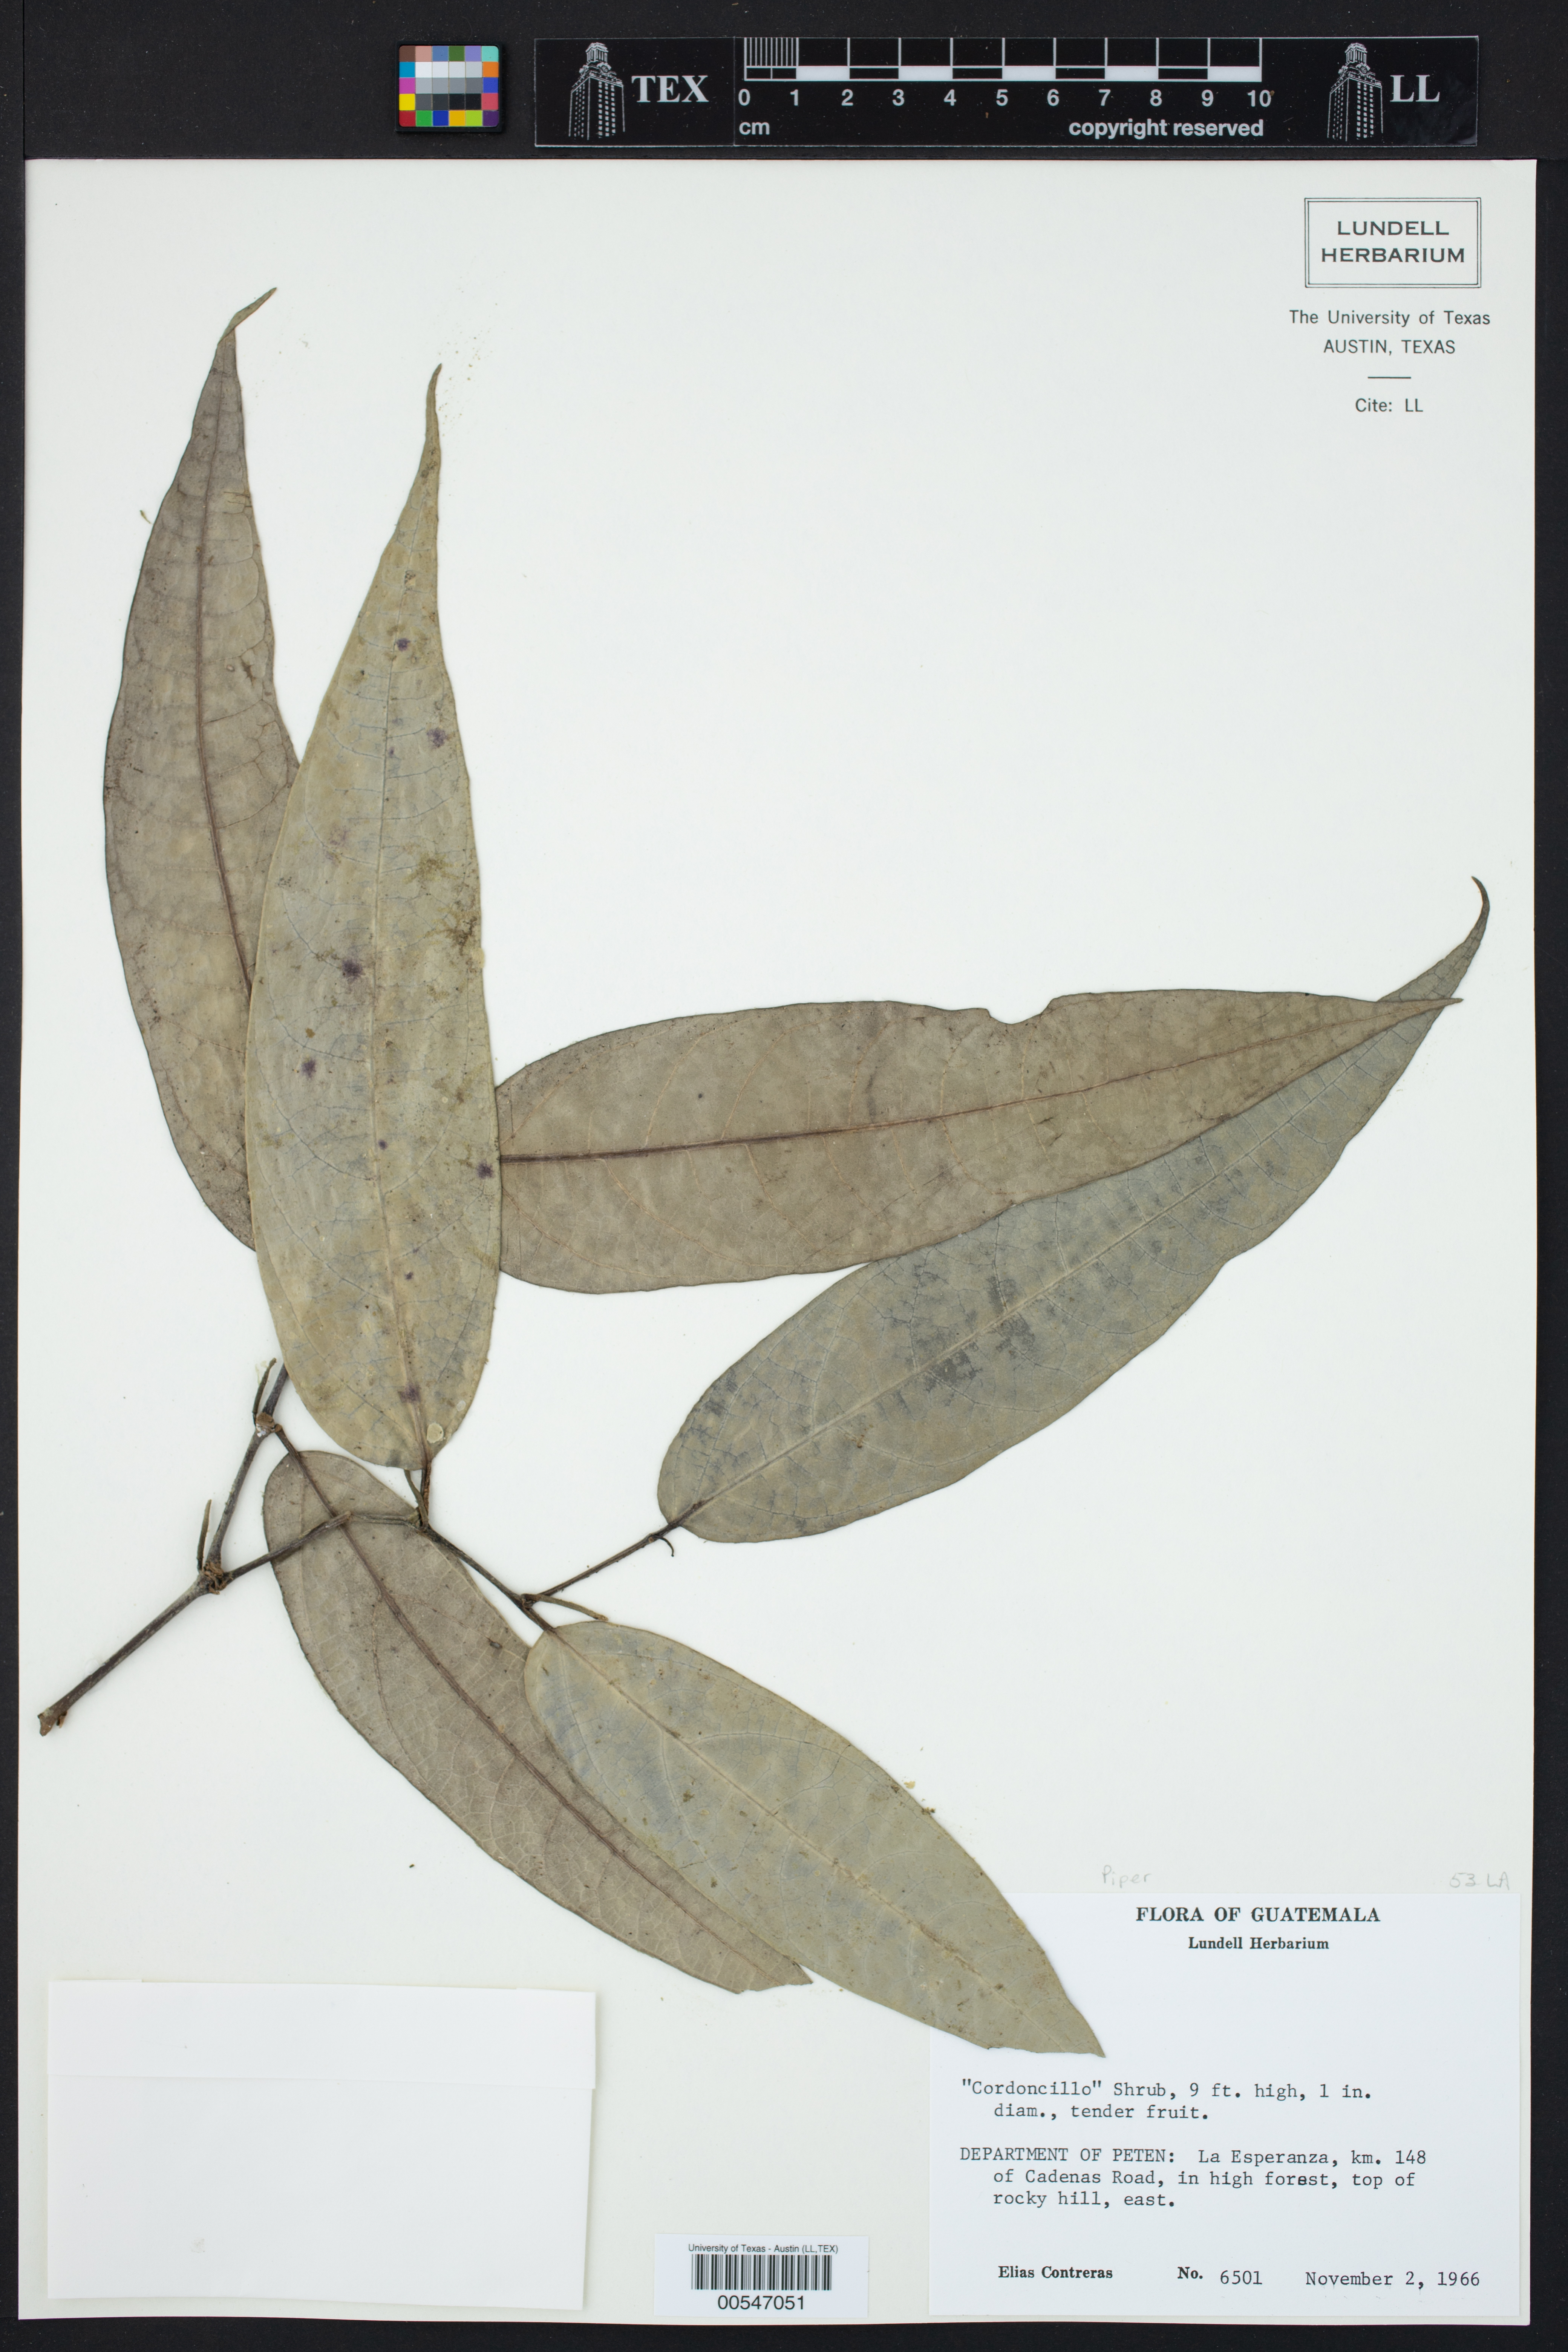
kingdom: Plantae
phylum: Tracheophyta
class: Magnoliopsida
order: Piperales
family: Piperaceae
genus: Piper
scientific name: Piper
